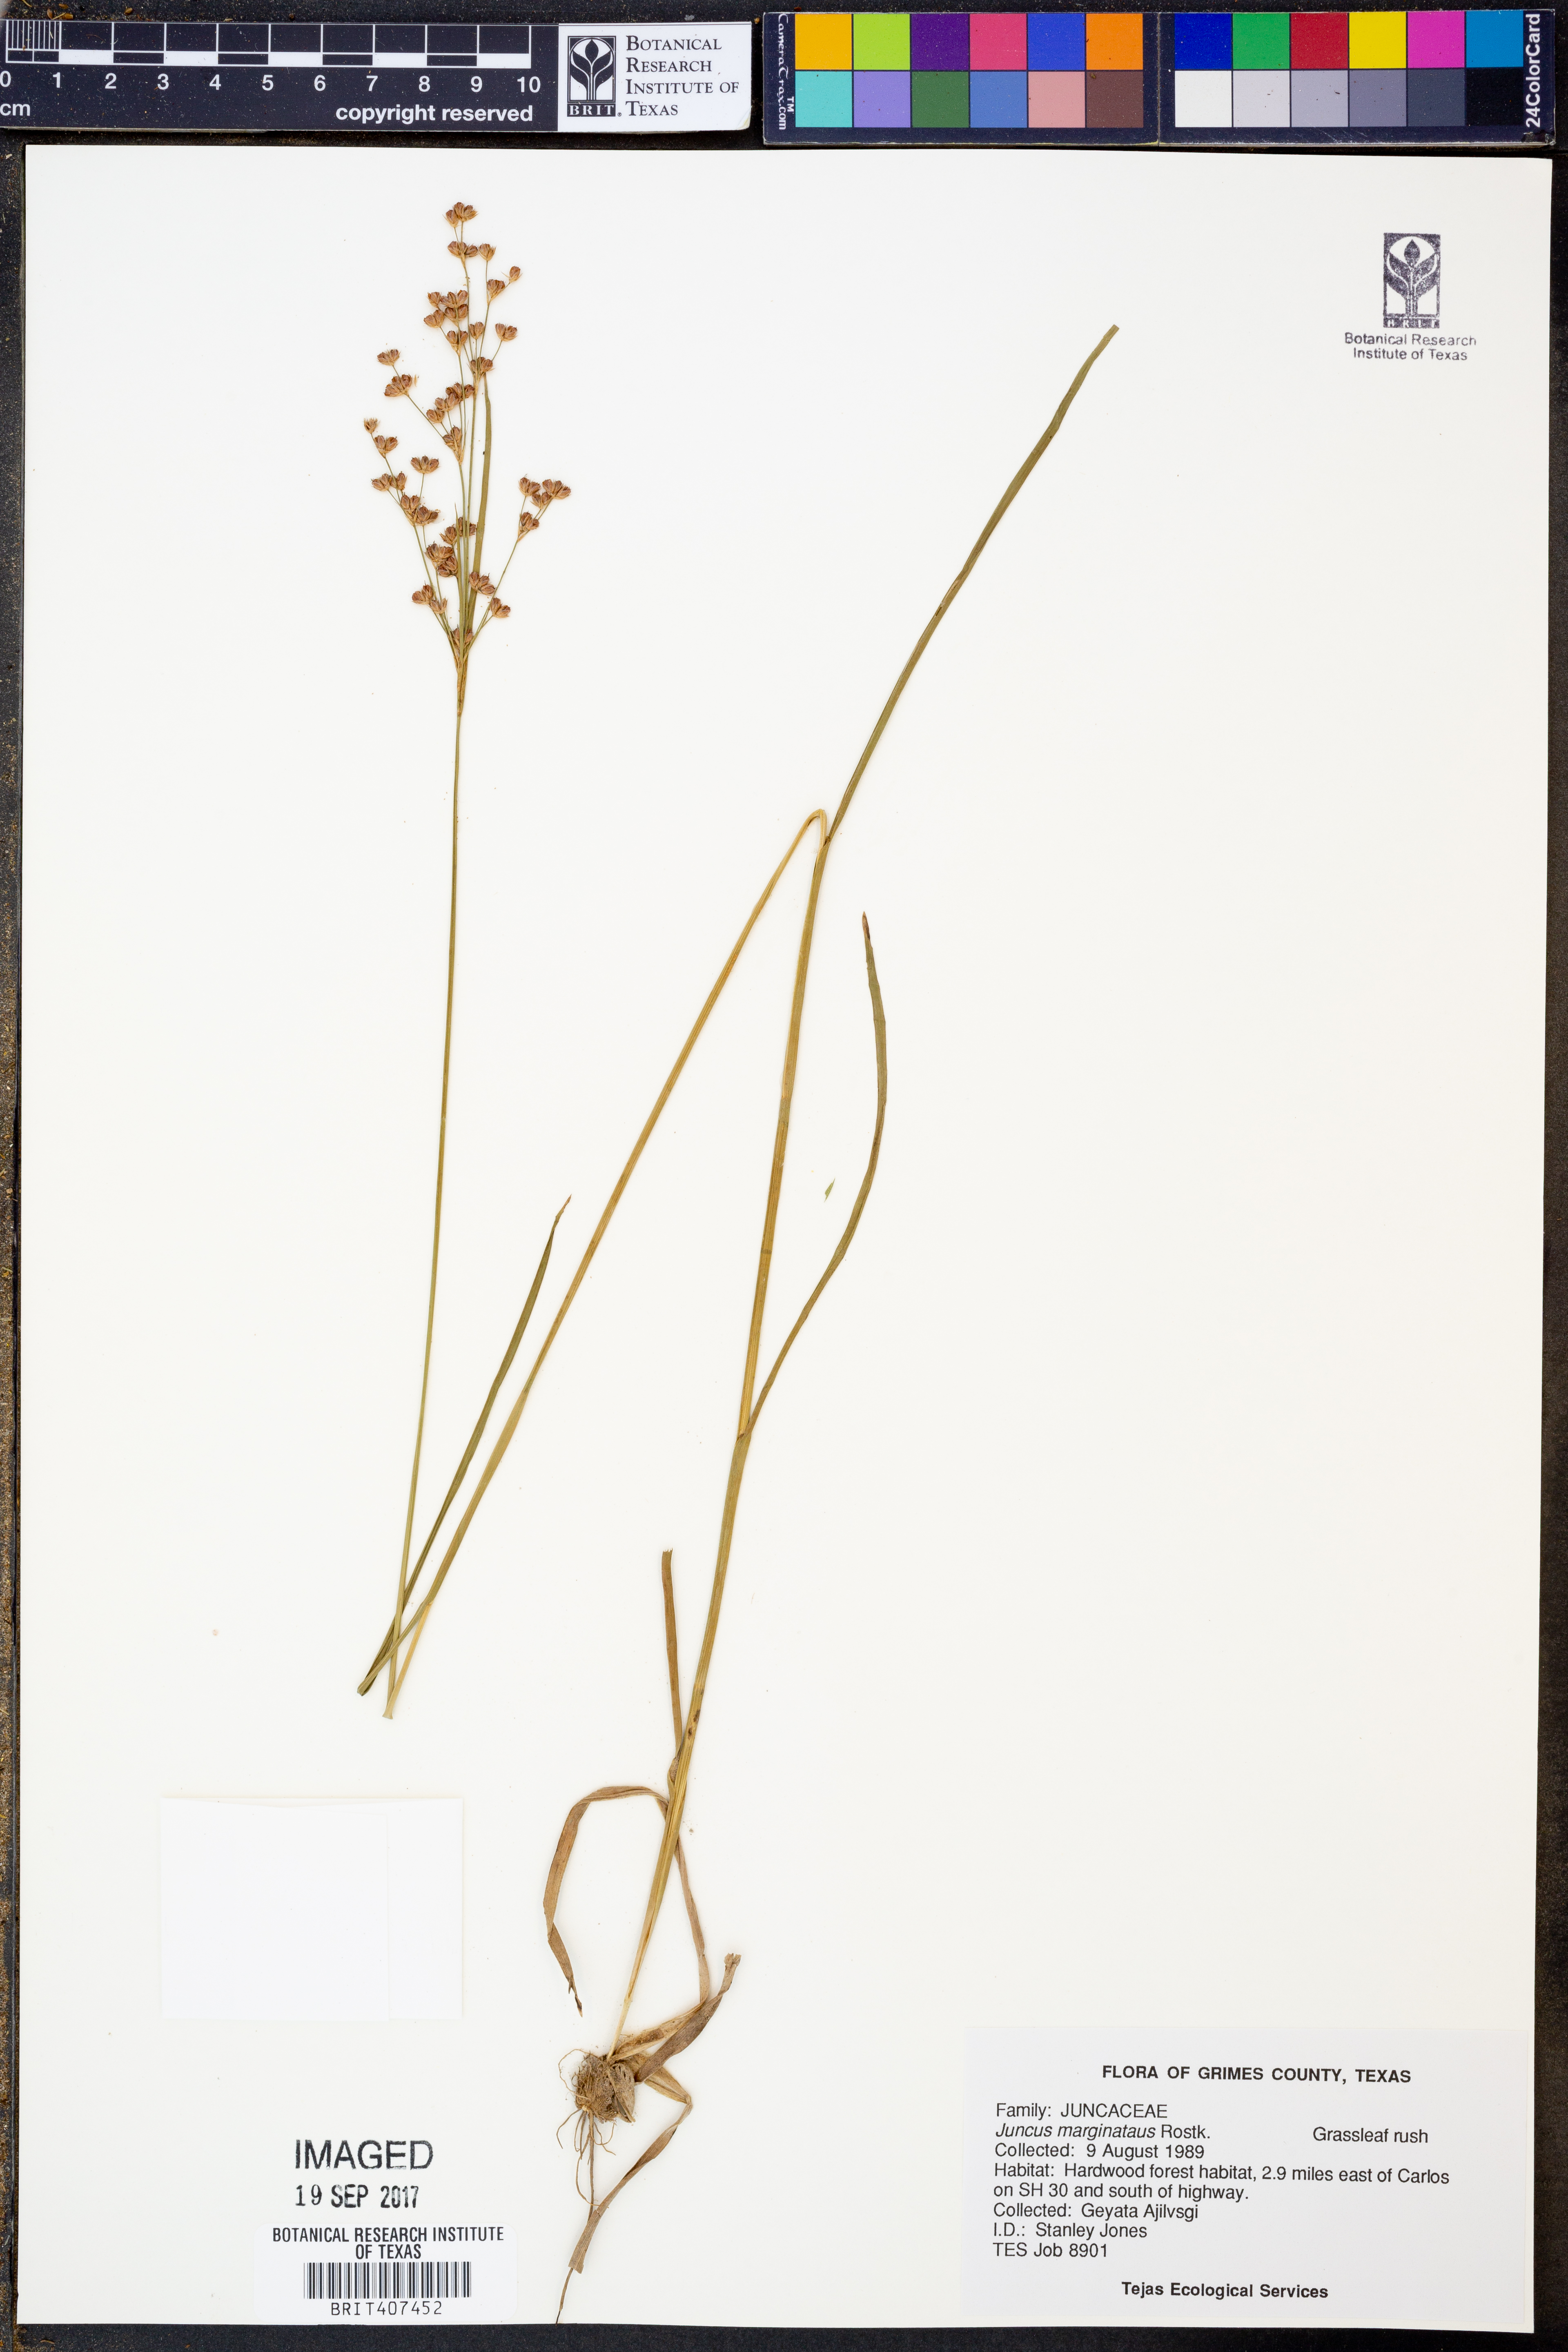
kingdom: Plantae
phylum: Tracheophyta
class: Liliopsida
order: Poales
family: Juncaceae
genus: Juncus
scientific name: Juncus marginatus
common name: Grass-leaf rush
